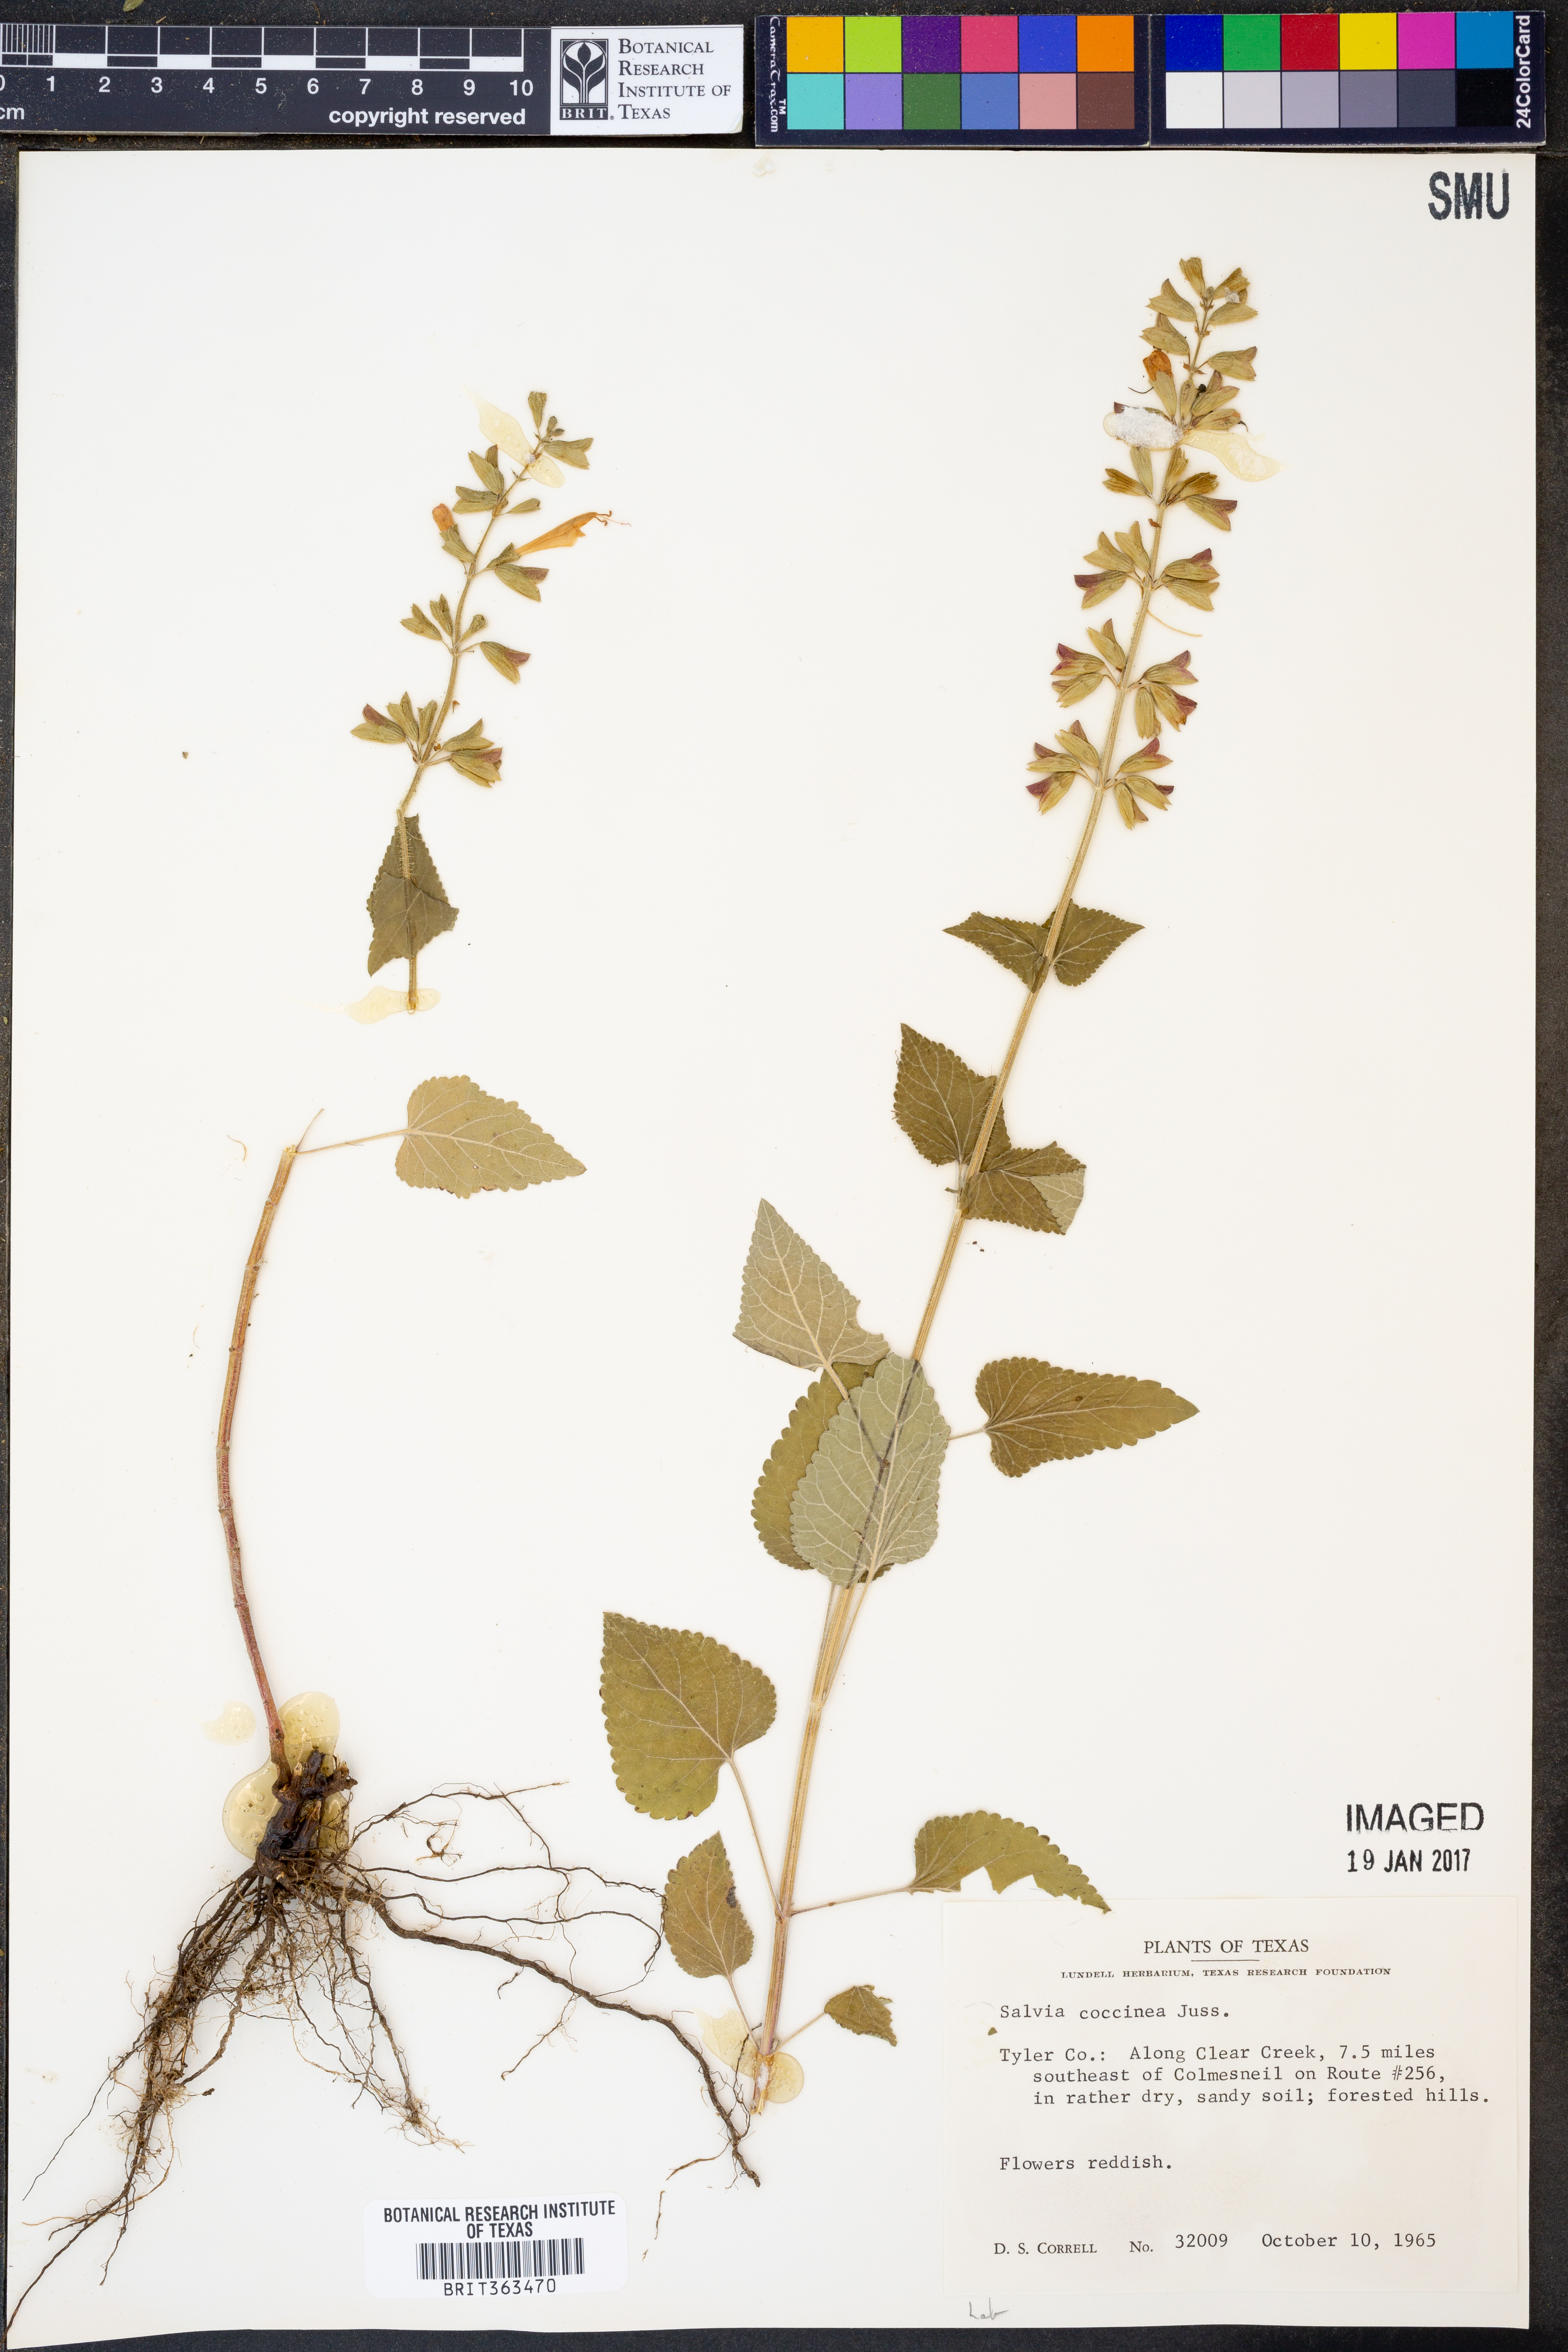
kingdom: Plantae
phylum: Tracheophyta
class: Magnoliopsida
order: Lamiales
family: Lamiaceae
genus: Salvia
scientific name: Salvia coccinea
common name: Blood sage
